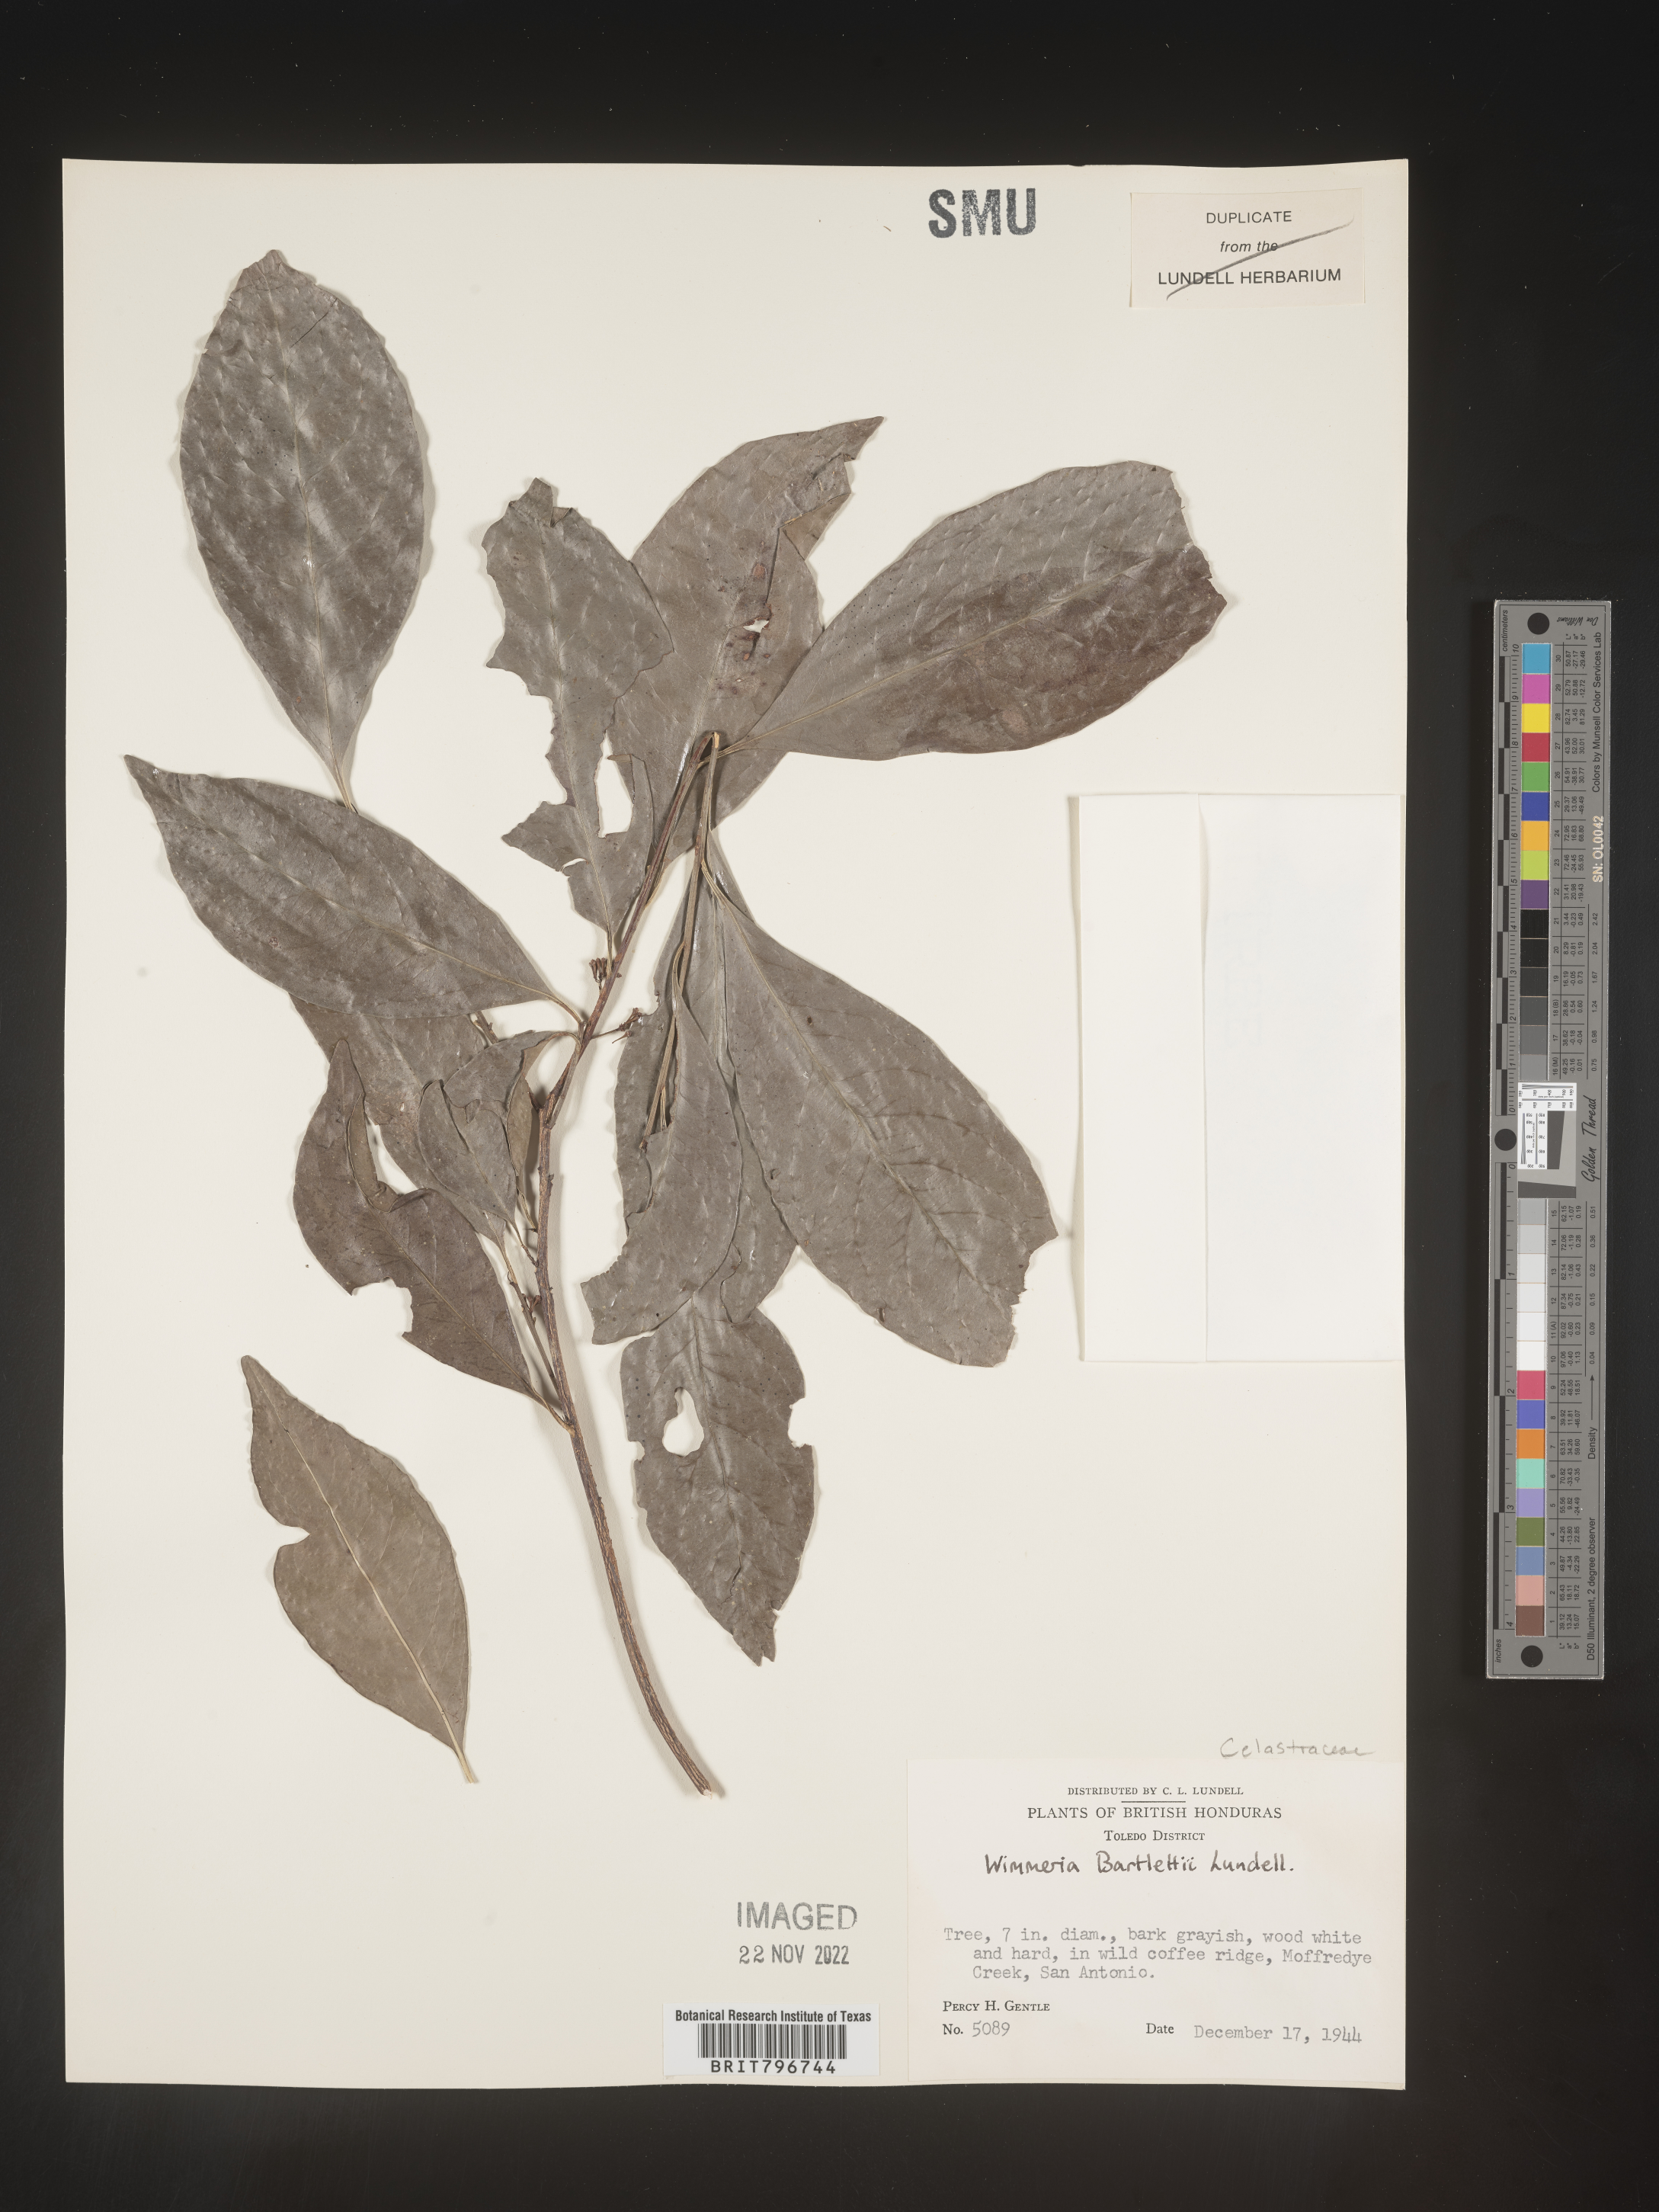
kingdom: Plantae
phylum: Tracheophyta
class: Magnoliopsida
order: Celastrales
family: Celastraceae
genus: Wimmeria
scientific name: Wimmeria
